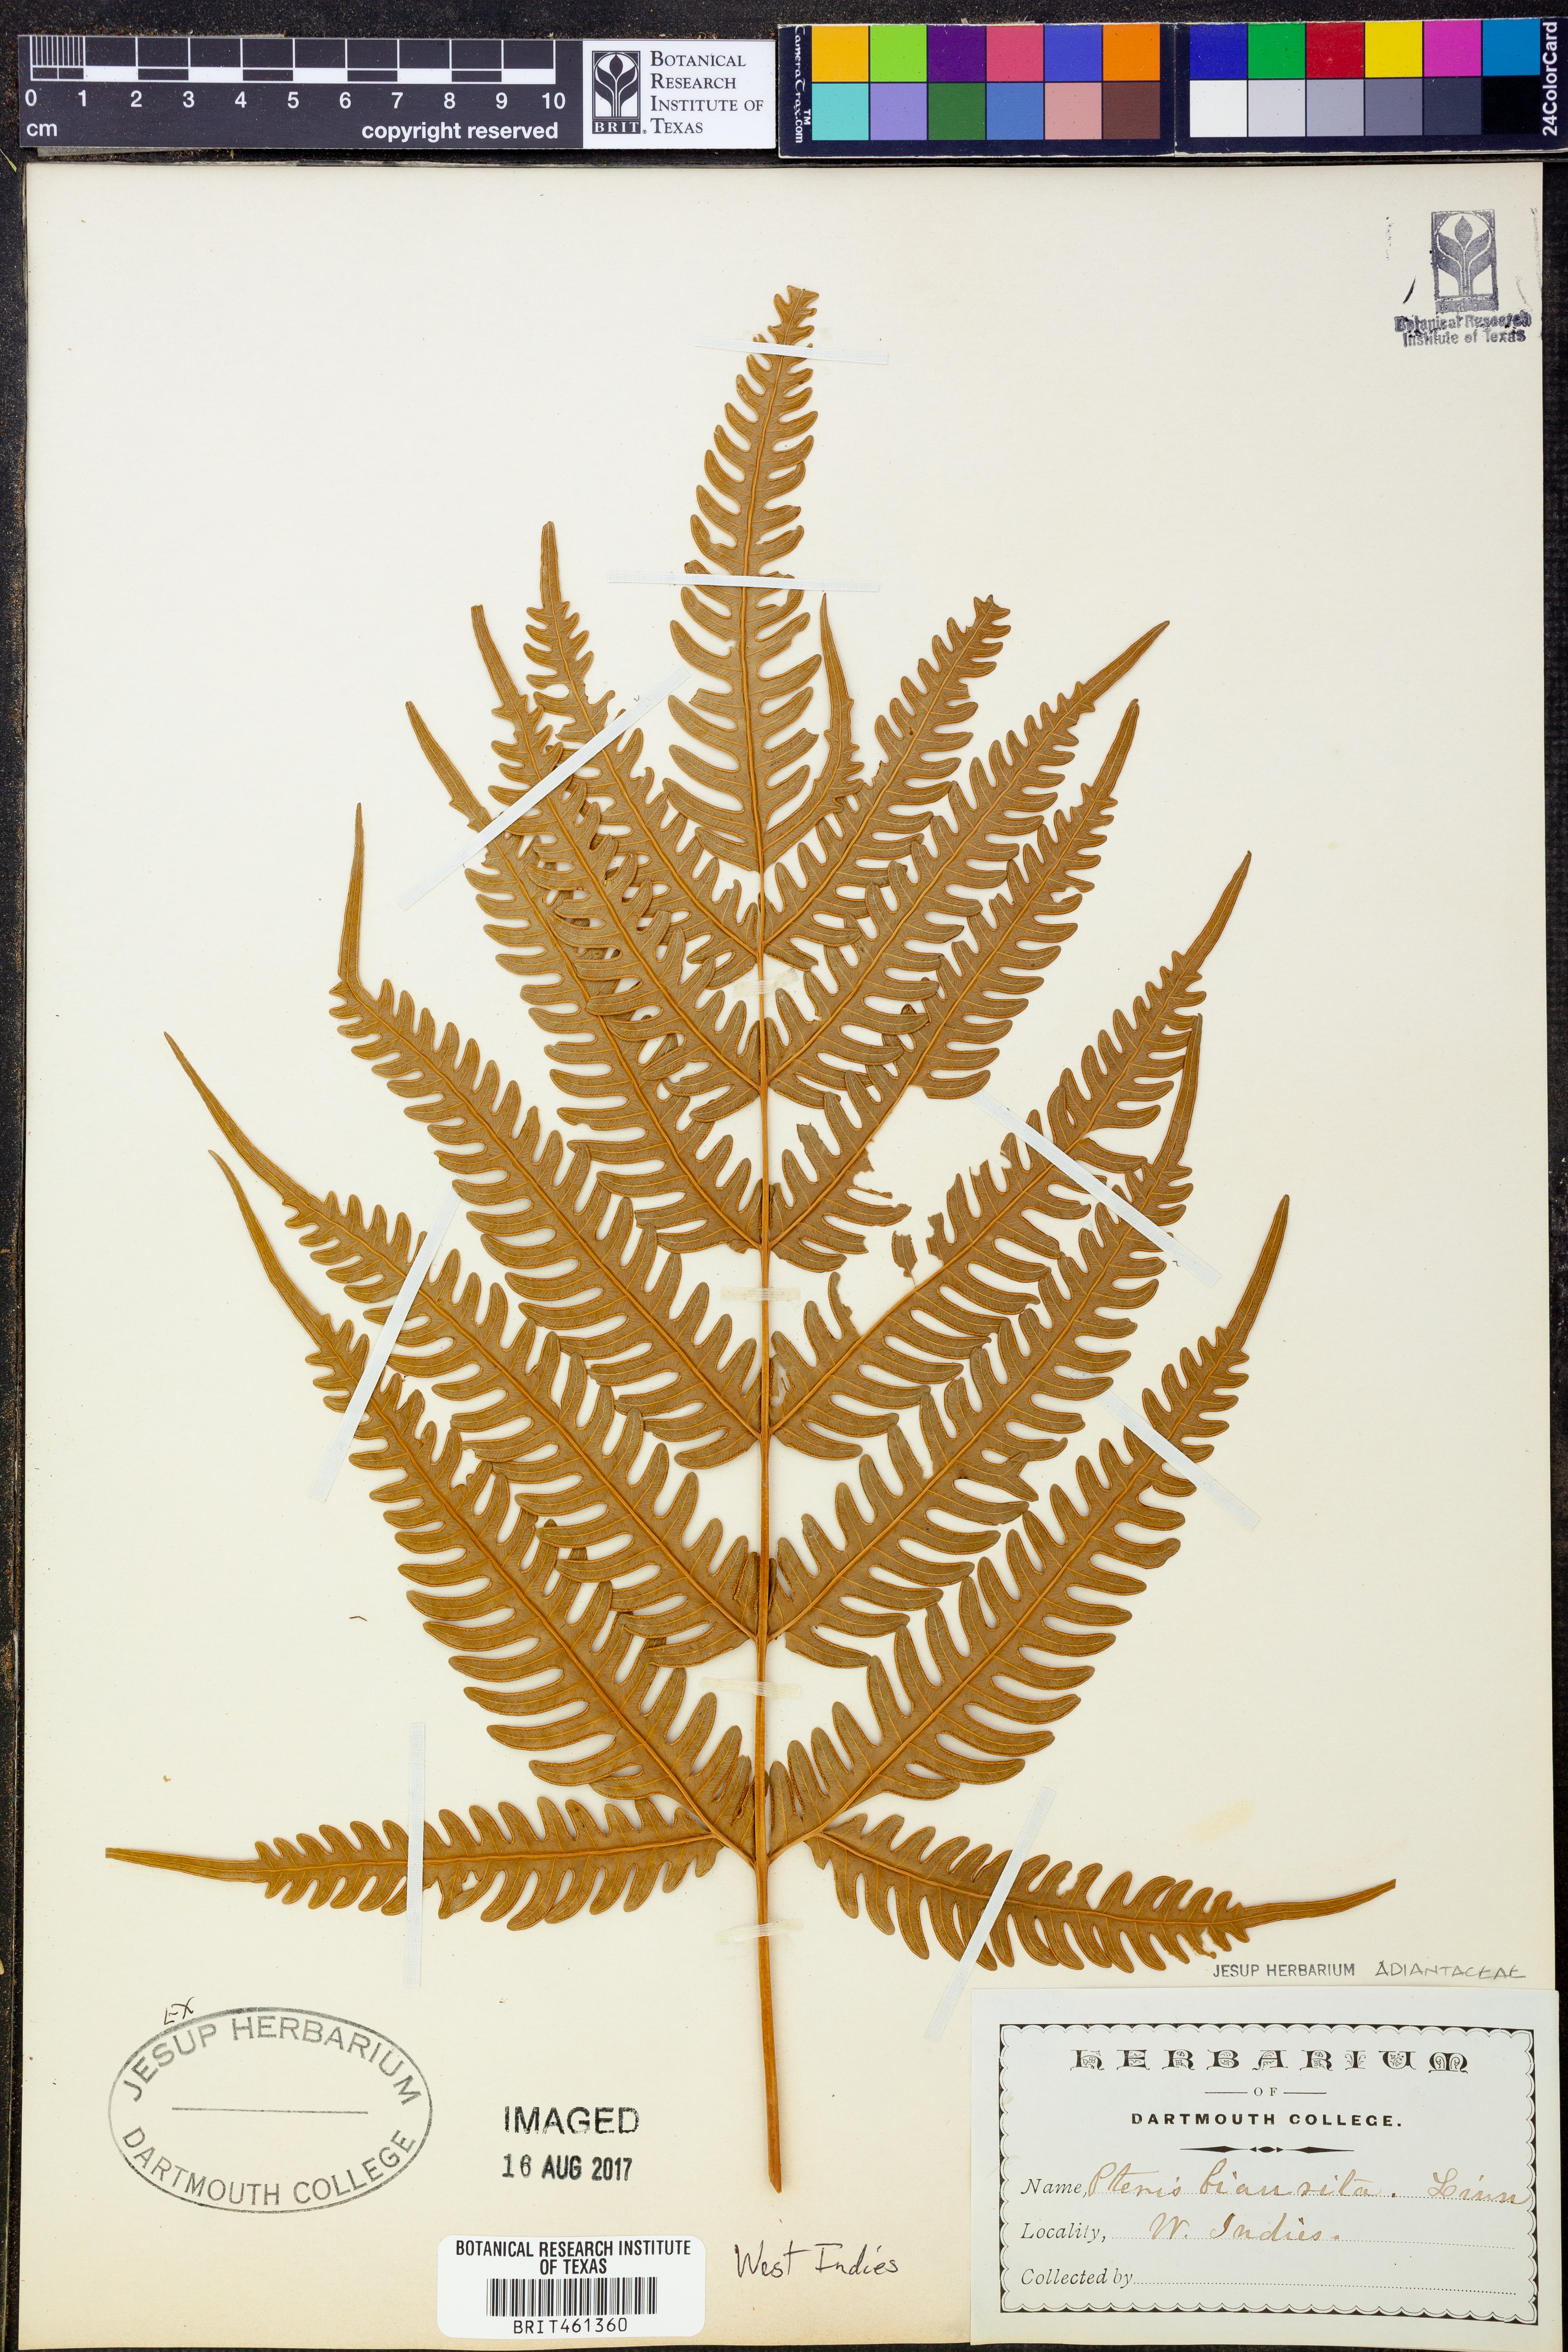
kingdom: Plantae
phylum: Tracheophyta
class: Polypodiopsida
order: Polypodiales
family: Pteridaceae
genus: Pteris
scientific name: Pteris biaurita
